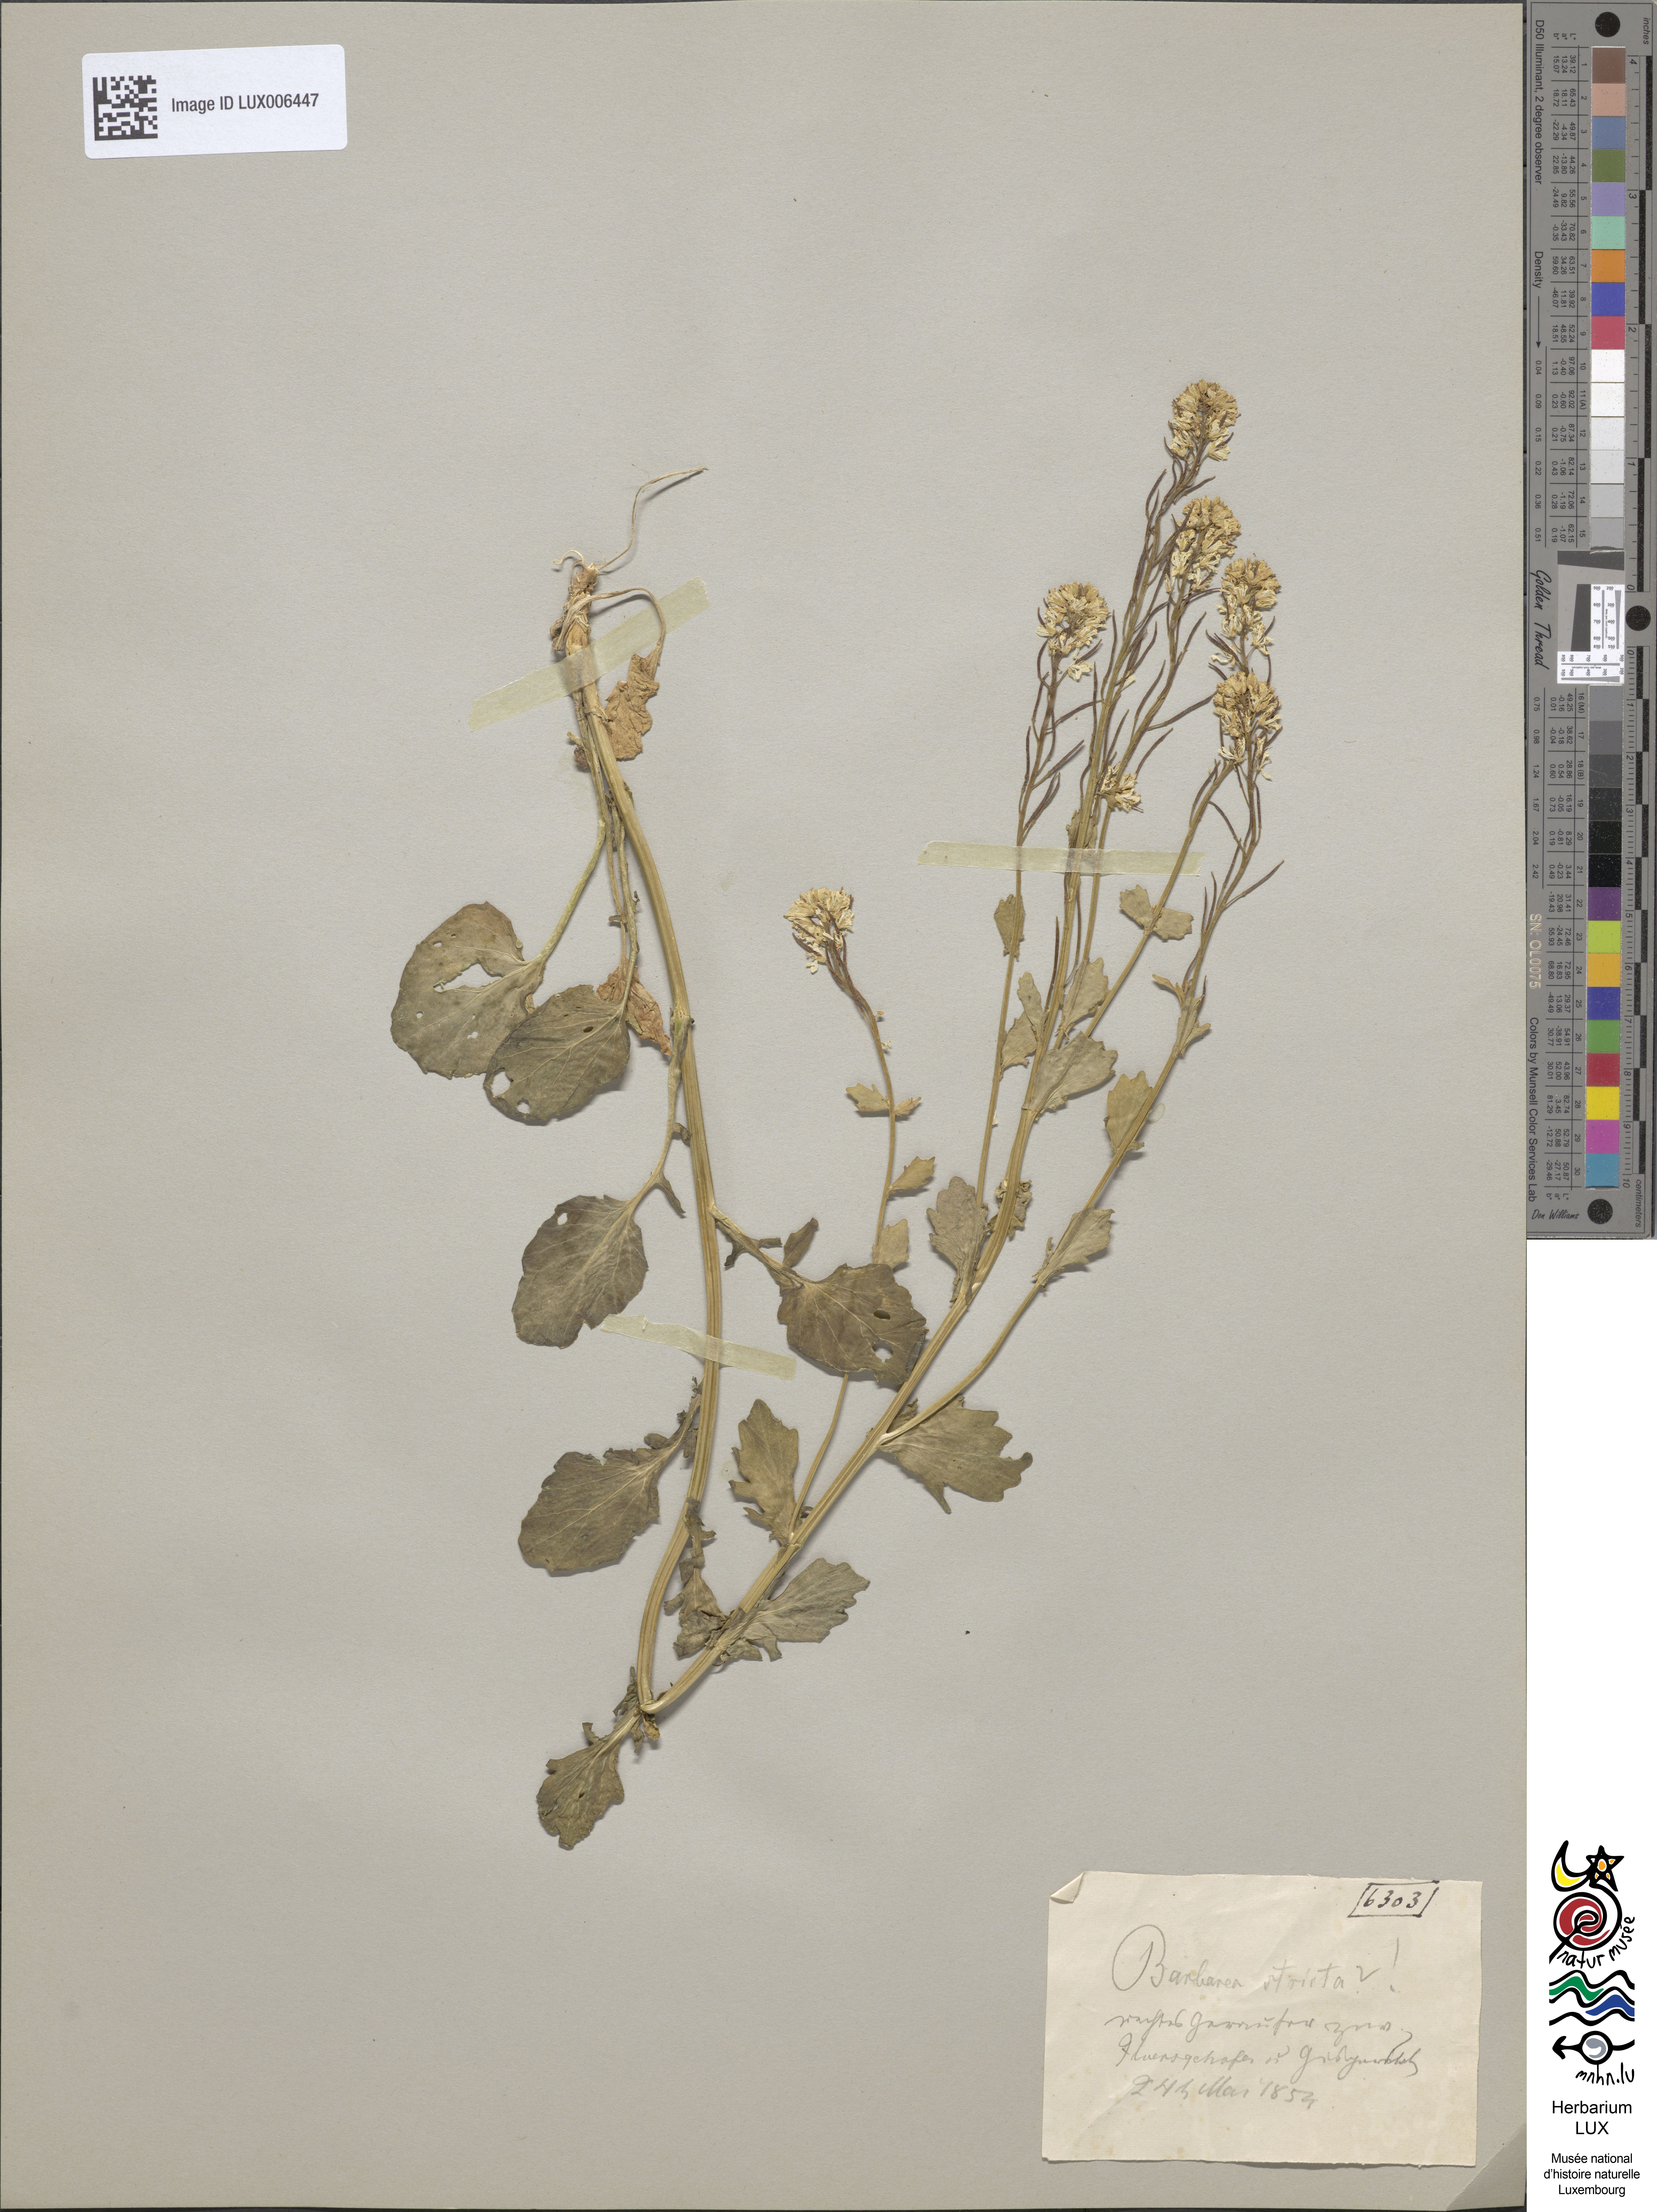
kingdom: Plantae
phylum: Tracheophyta
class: Magnoliopsida
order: Brassicales
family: Brassicaceae
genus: Barbarea
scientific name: Barbarea vulgaris
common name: Cressy-greens
